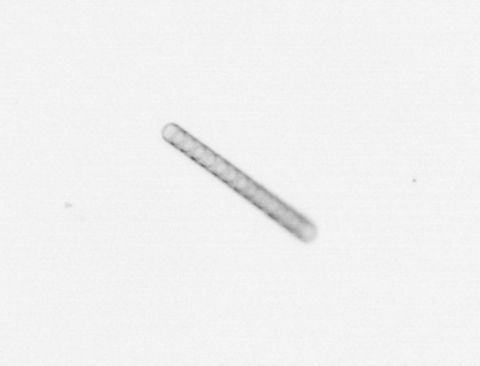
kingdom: Chromista
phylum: Ochrophyta
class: Bacillariophyceae
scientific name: Bacillariophyceae
